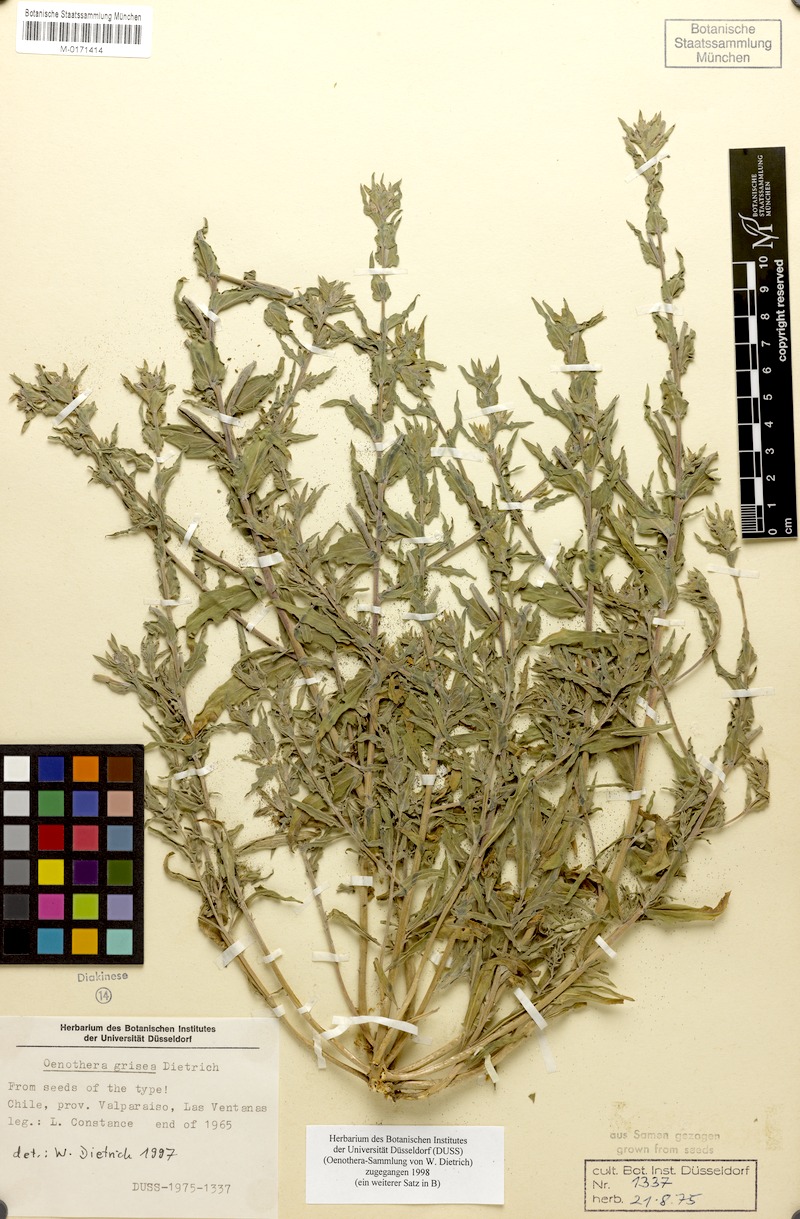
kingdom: Plantae
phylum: Tracheophyta
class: Magnoliopsida
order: Myrtales
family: Onagraceae
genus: Oenothera
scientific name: Oenothera grisea
